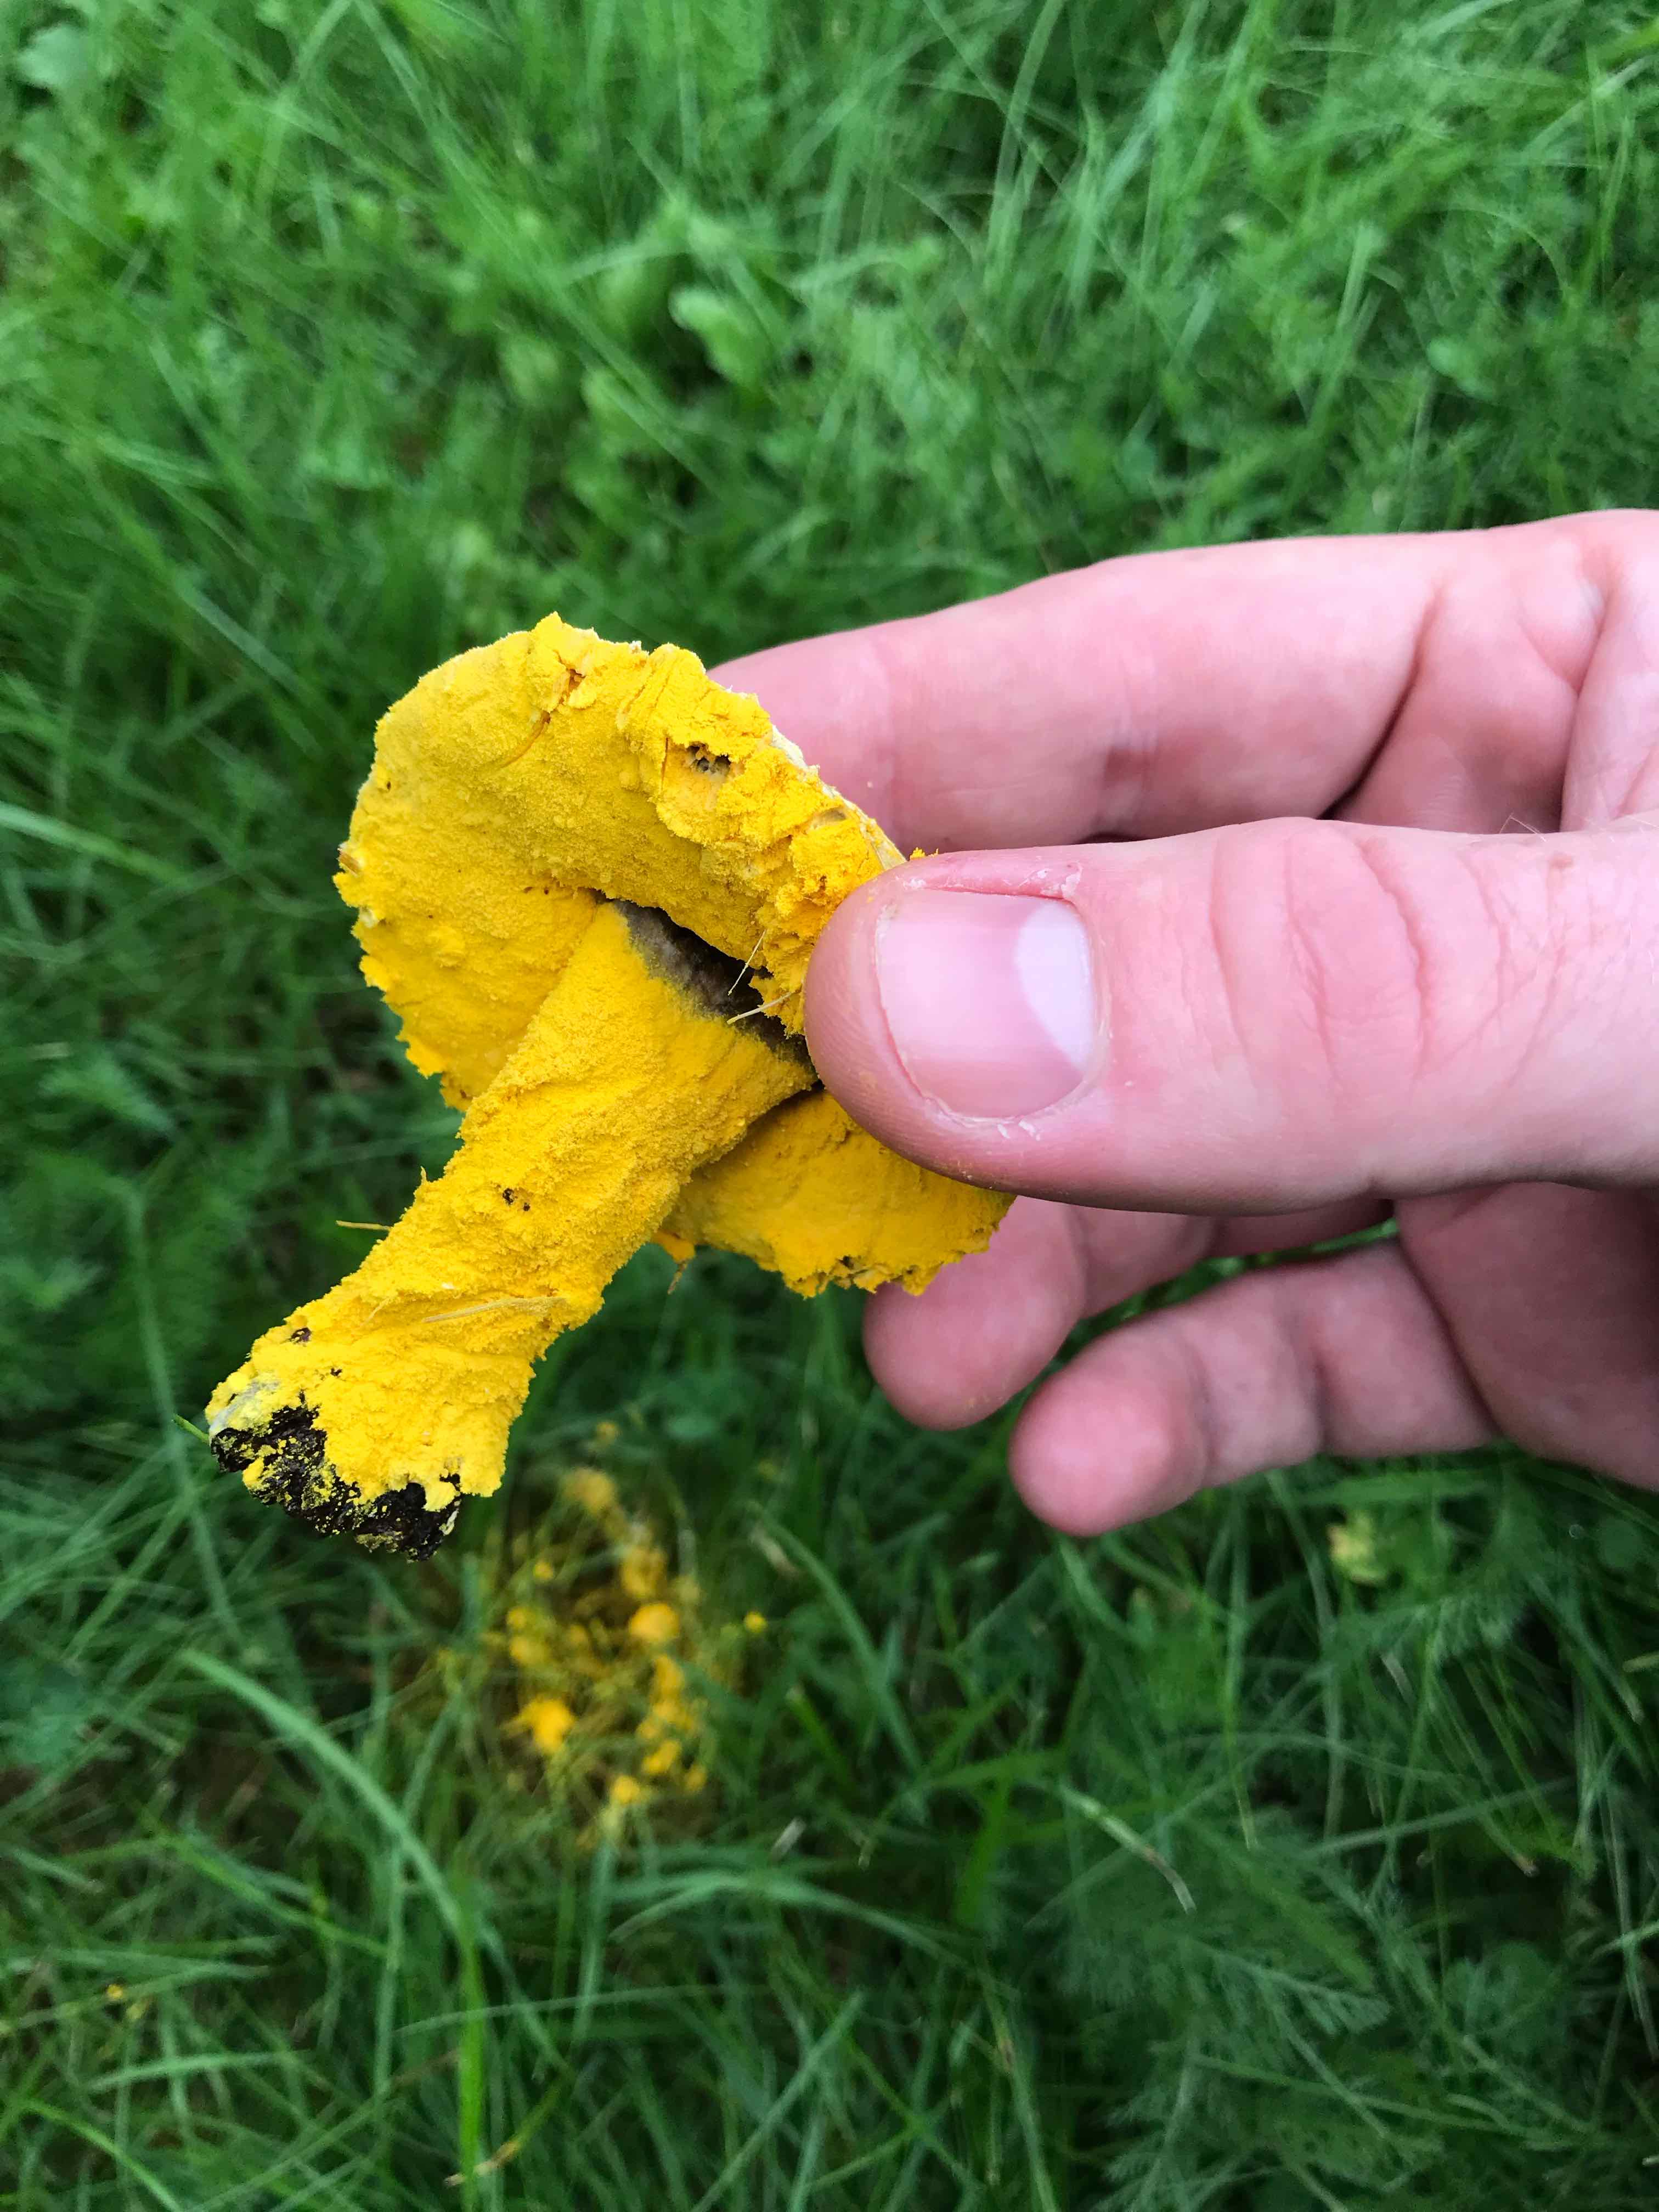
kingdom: Fungi
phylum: Ascomycota
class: Sordariomycetes
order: Hypocreales
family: Hypocreaceae
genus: Hypomyces
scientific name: Hypomyces microspermus
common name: dværgrørhat-snylteskorpe
